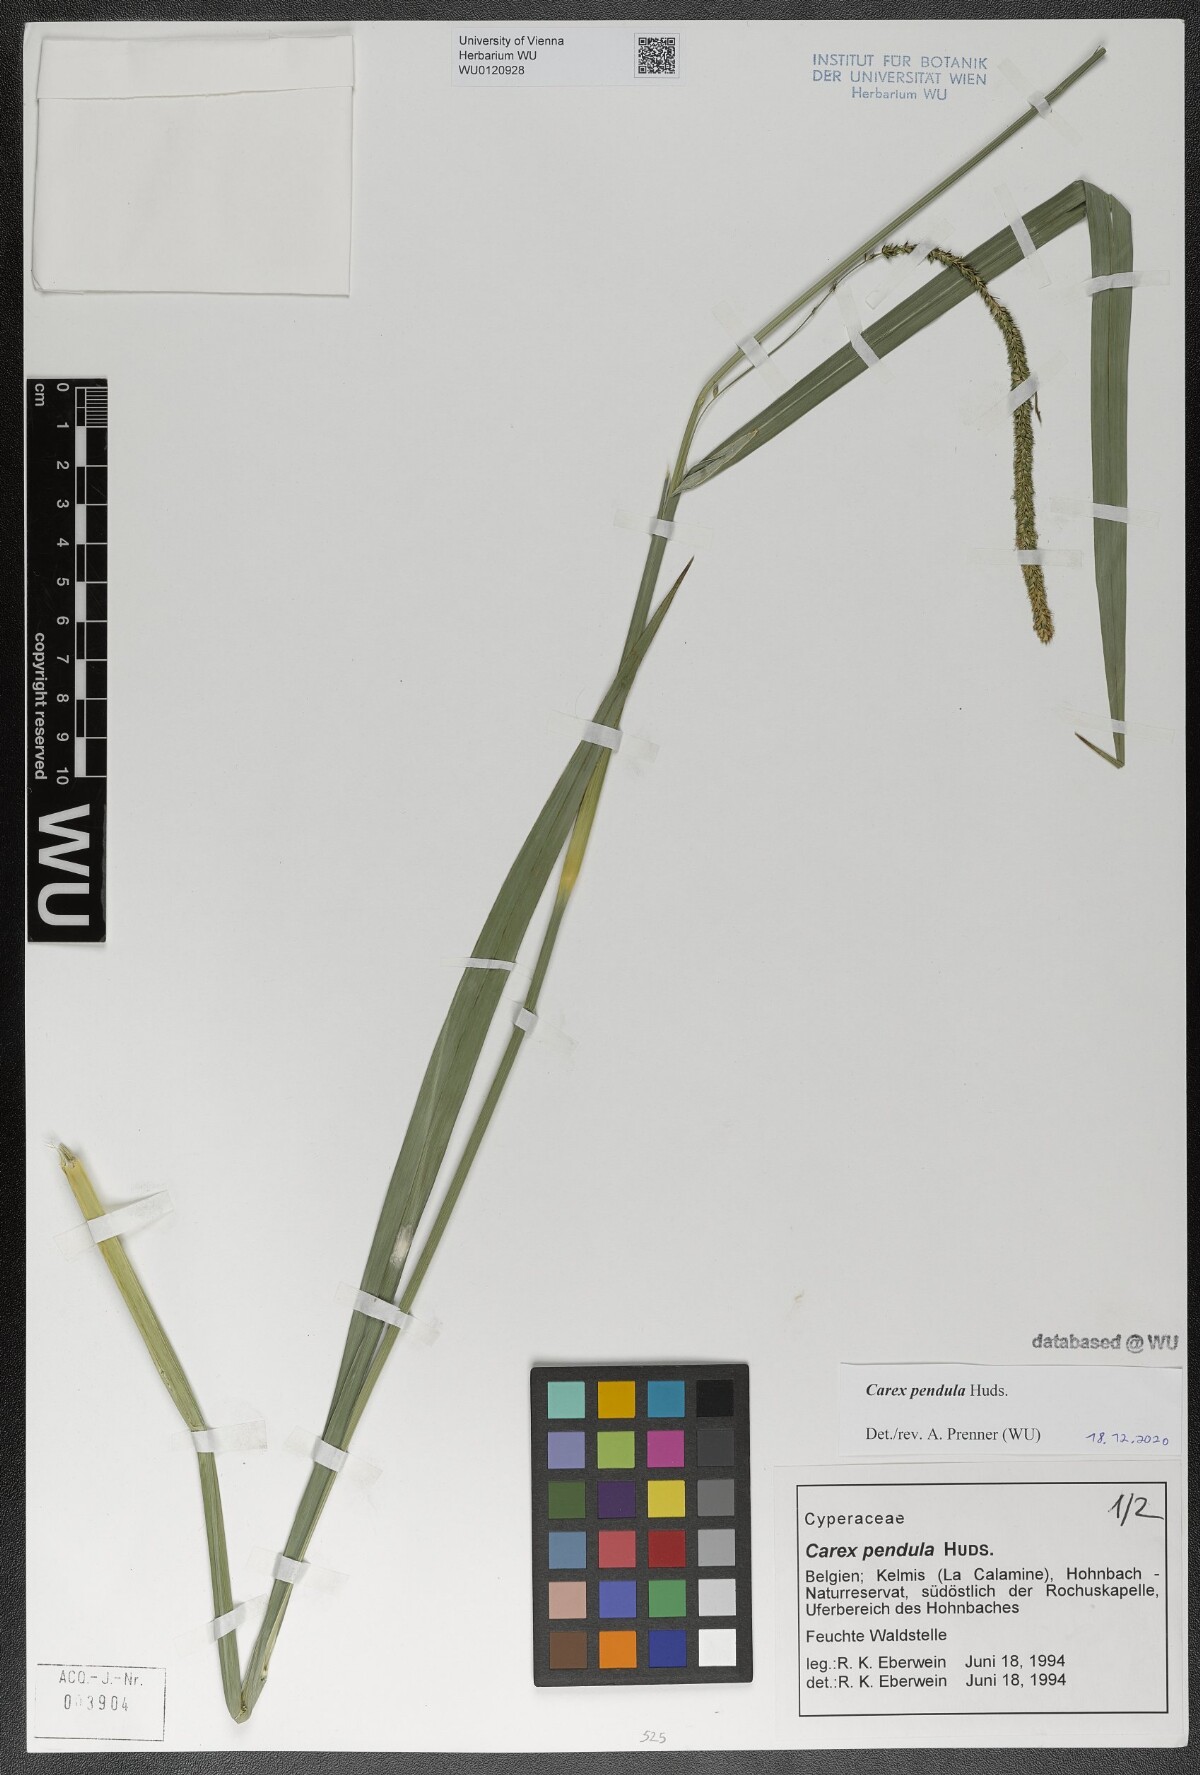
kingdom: Plantae
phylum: Tracheophyta
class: Liliopsida
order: Poales
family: Cyperaceae
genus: Carex
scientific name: Carex pendula
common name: Pendulous sedge
